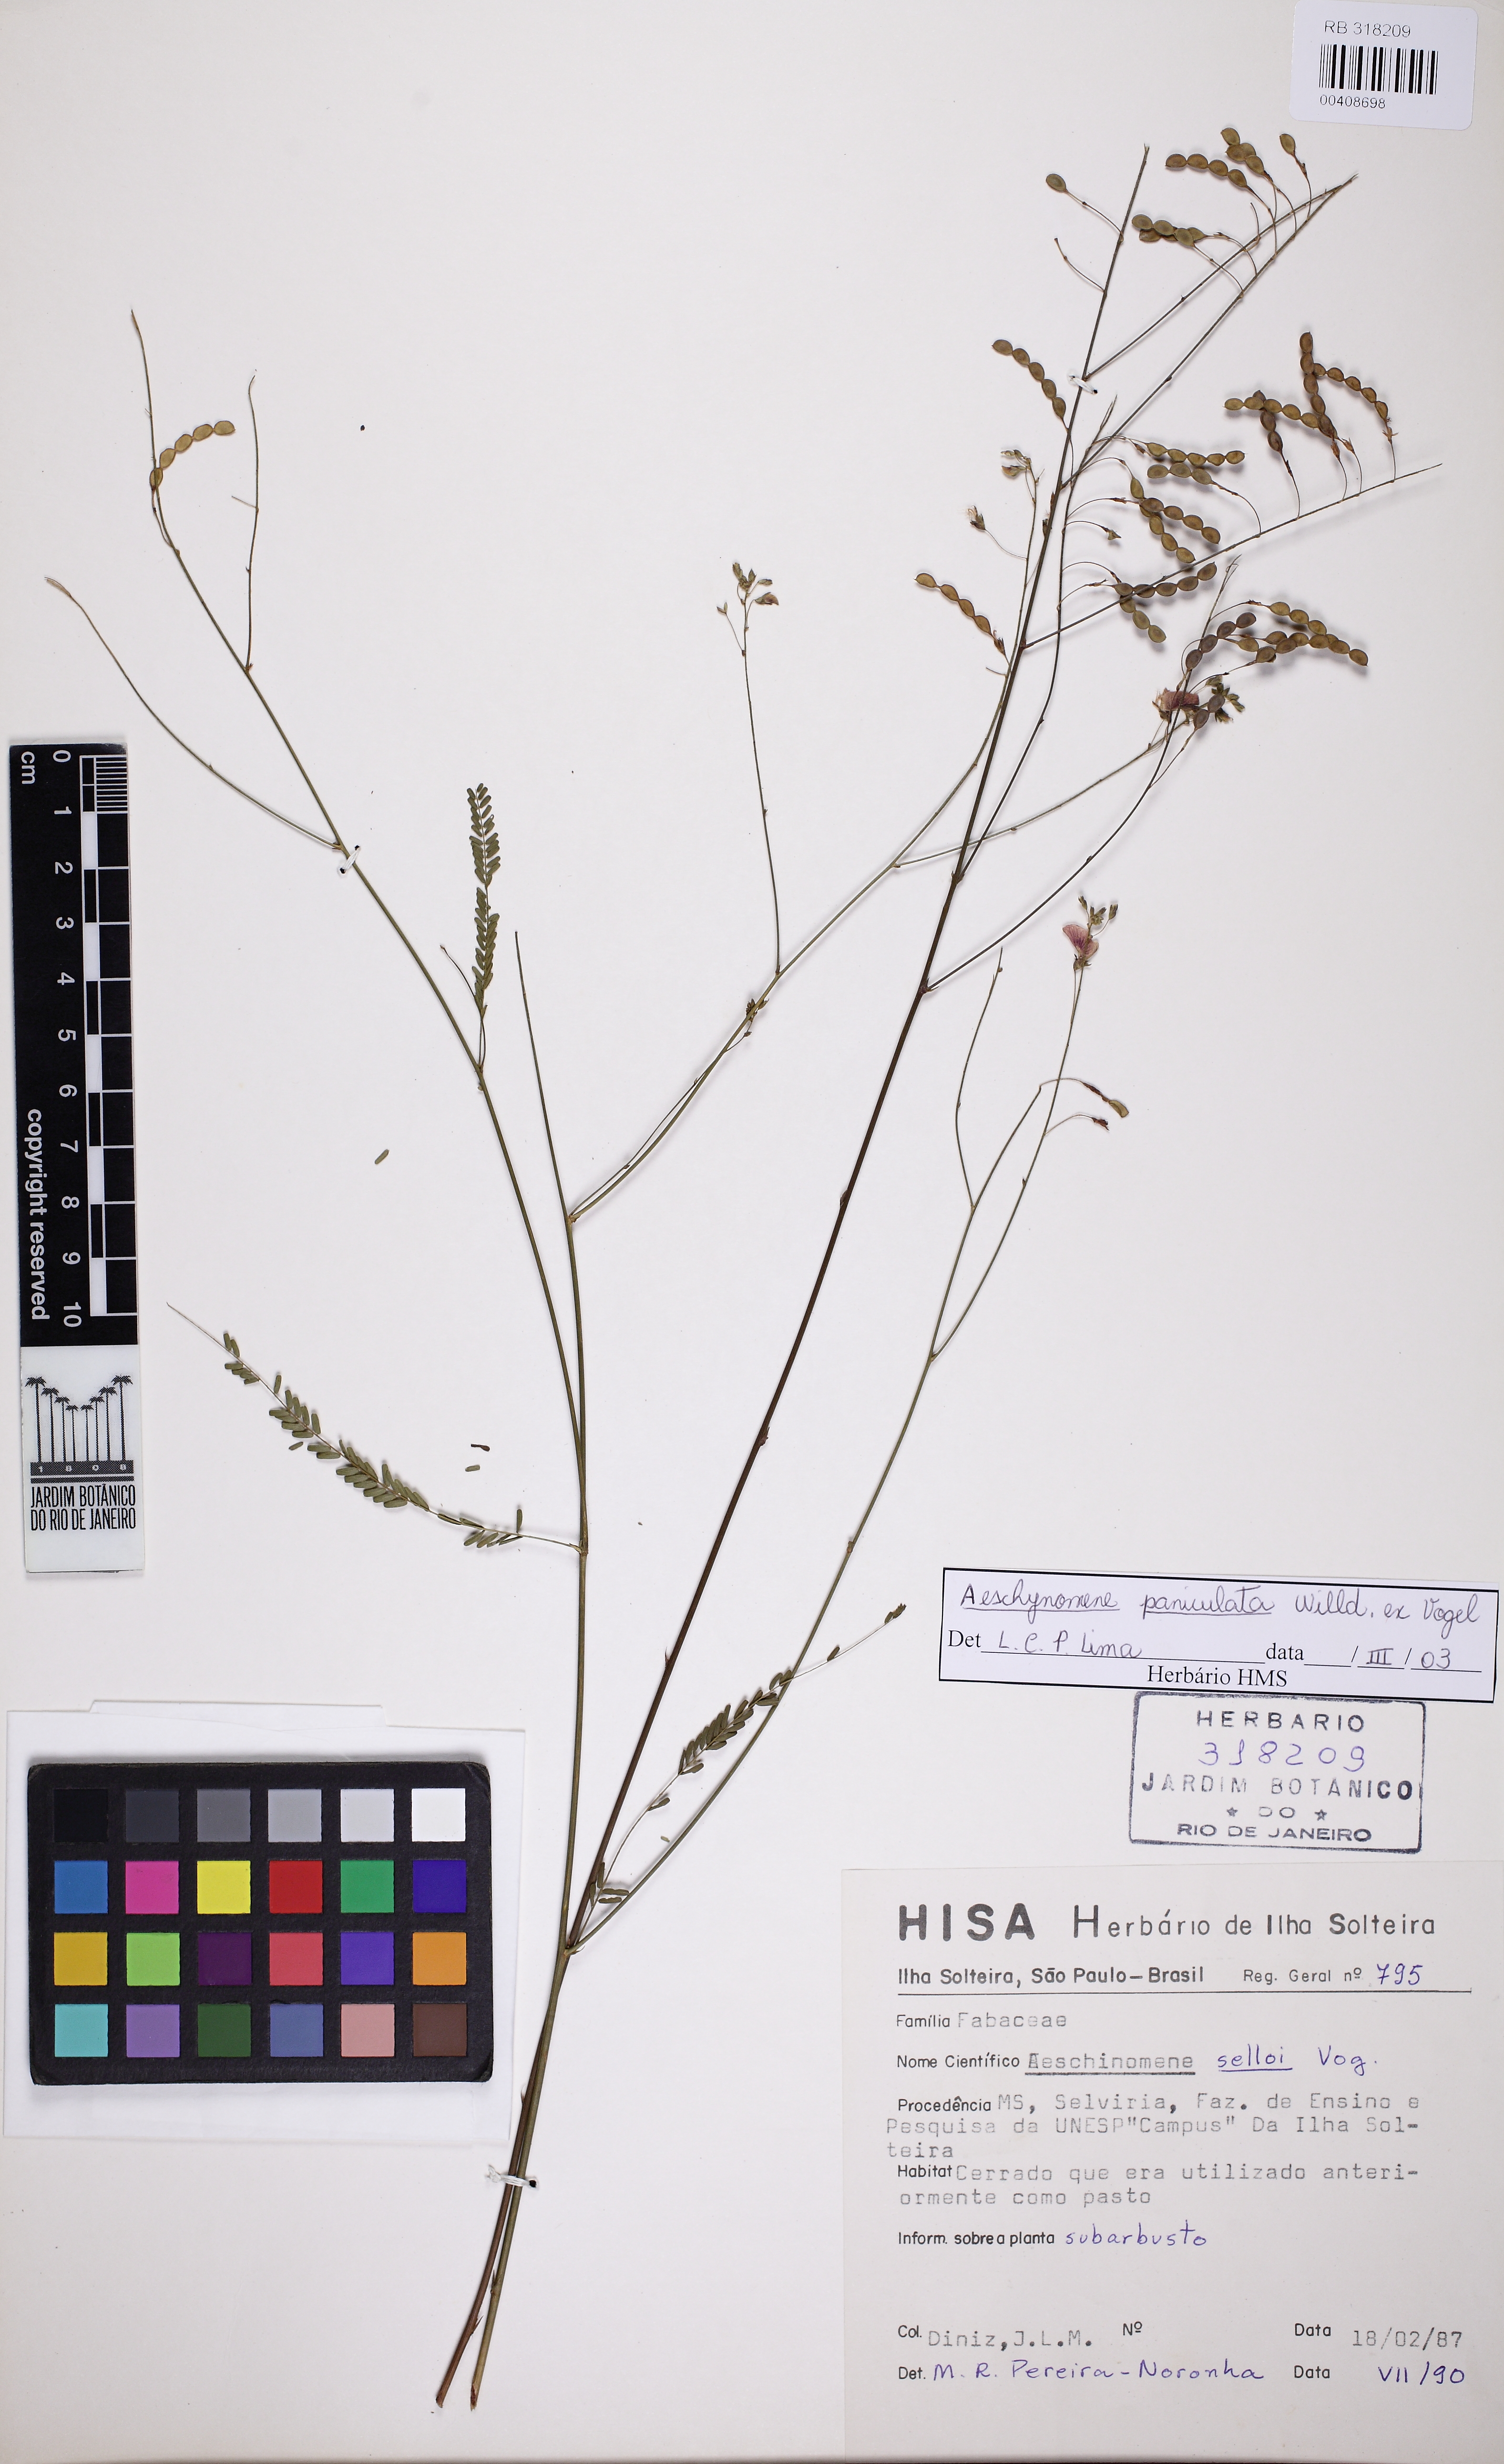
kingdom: Plantae
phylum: Tracheophyta
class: Magnoliopsida
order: Fabales
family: Fabaceae
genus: Ctenodon
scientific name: Ctenodon paniculatus
